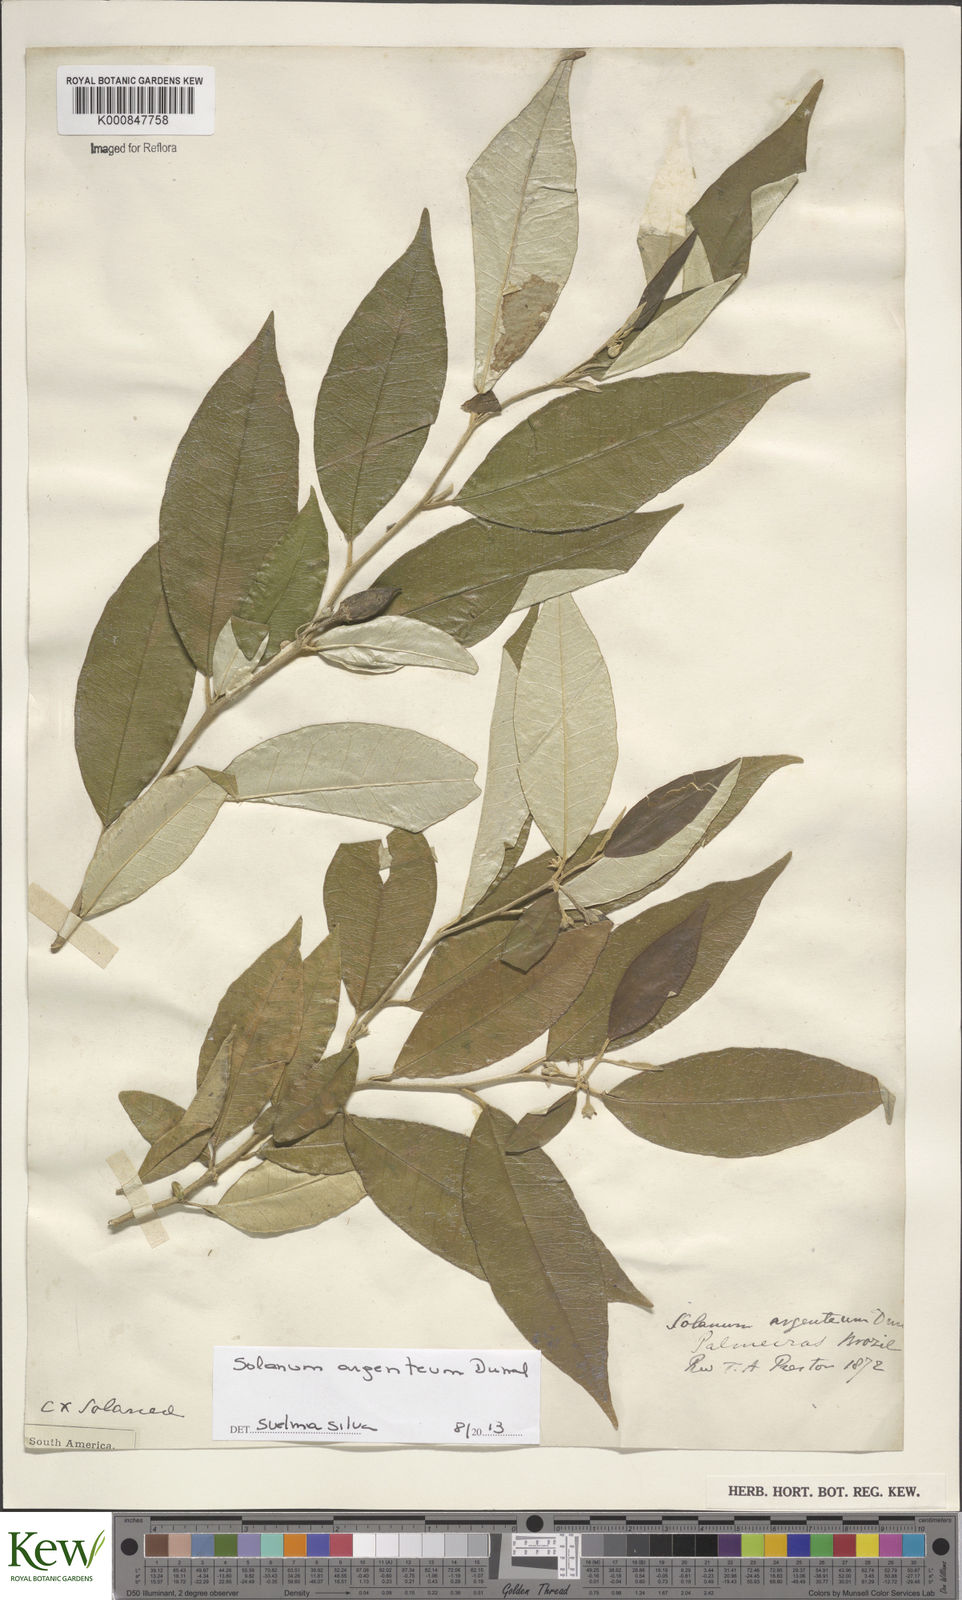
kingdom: Plantae
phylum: Tracheophyta
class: Magnoliopsida
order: Solanales
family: Solanaceae
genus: Solanum
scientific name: Solanum swartzianum
